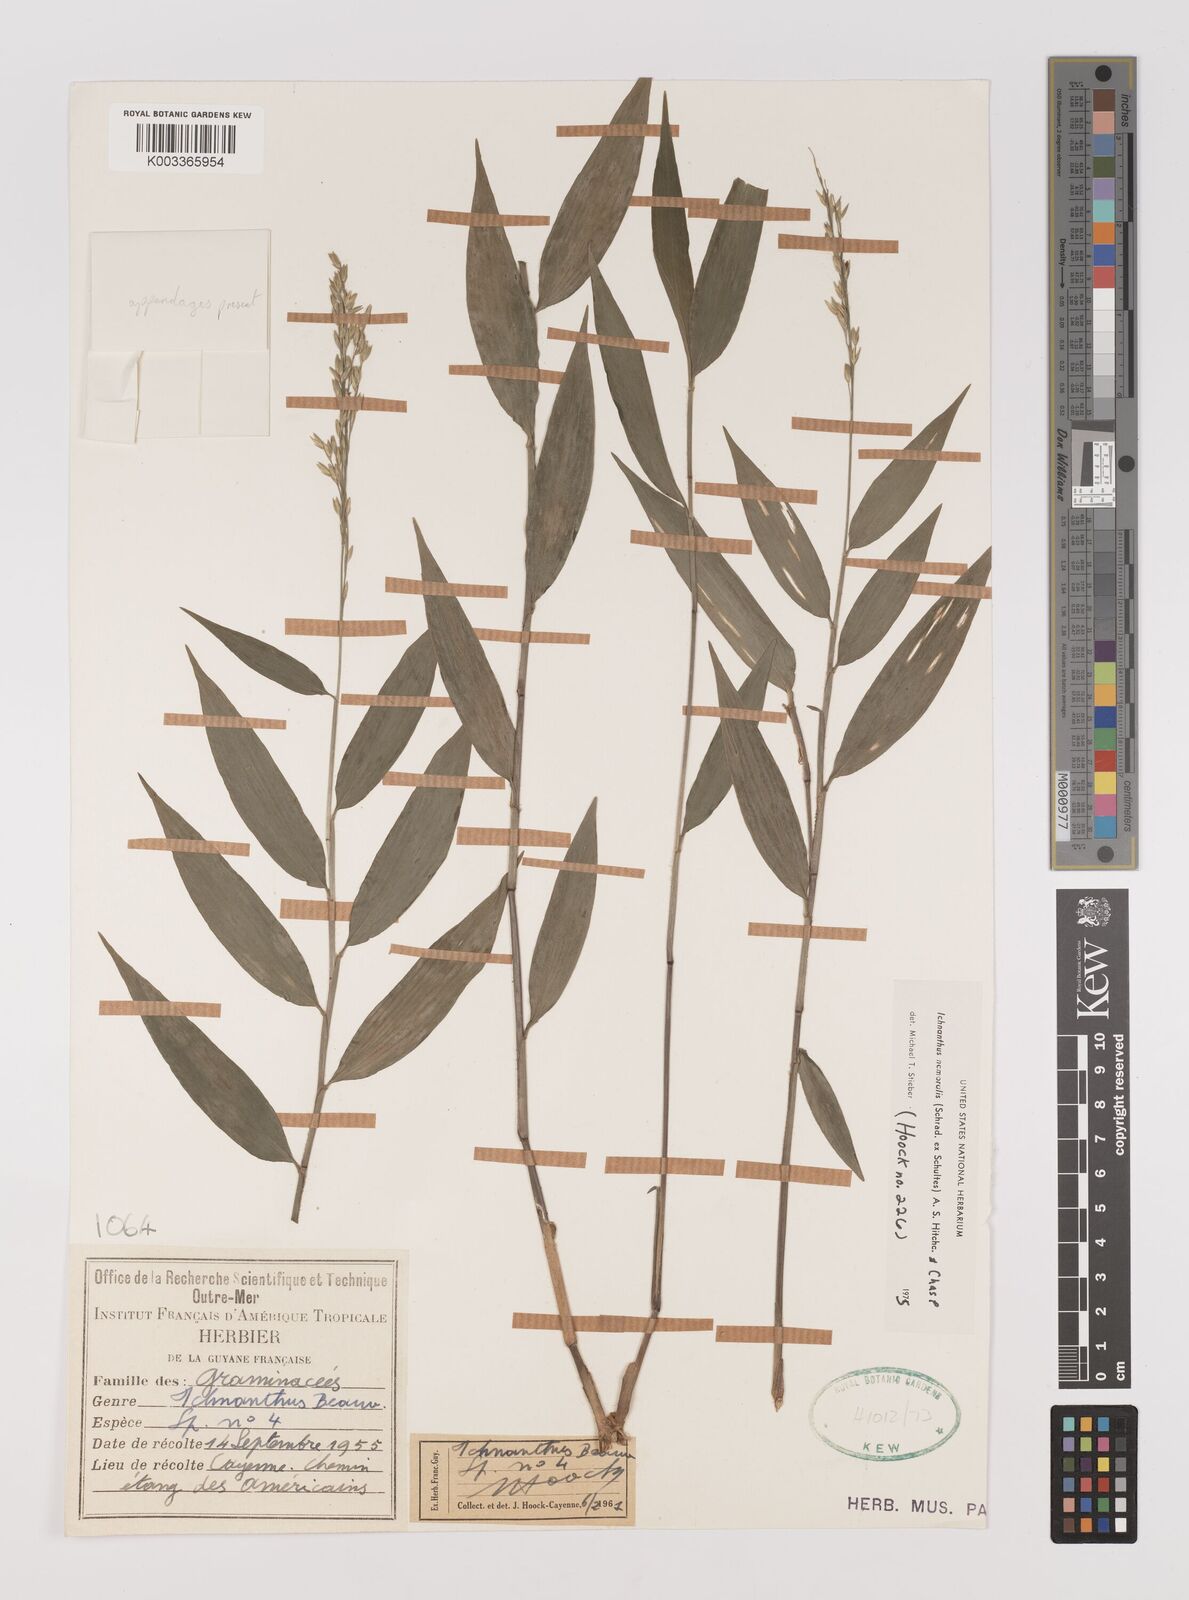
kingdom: Plantae
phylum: Tracheophyta
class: Liliopsida
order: Poales
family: Poaceae
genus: Ichnanthus
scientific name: Ichnanthus nemoralis
